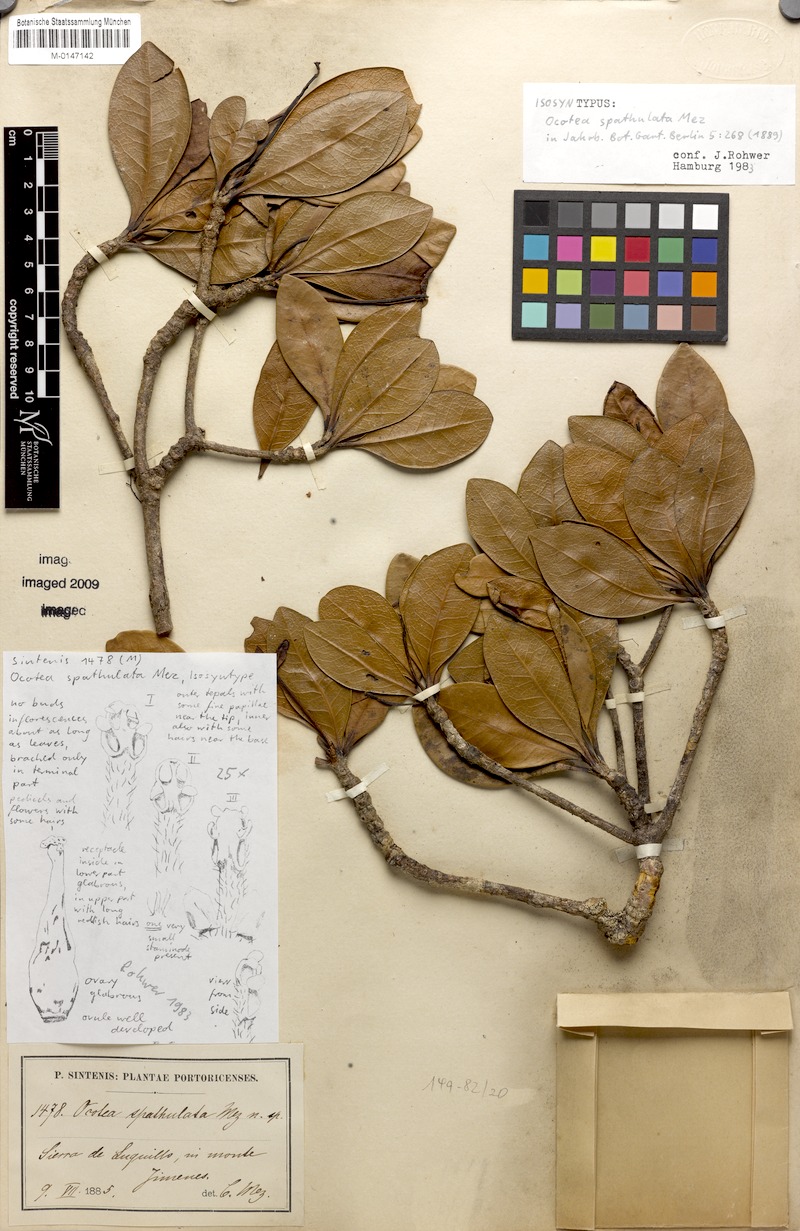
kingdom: Plantae
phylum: Tracheophyta
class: Magnoliopsida
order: Laurales
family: Lauraceae
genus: Ocotea
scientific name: Ocotea spathulata
